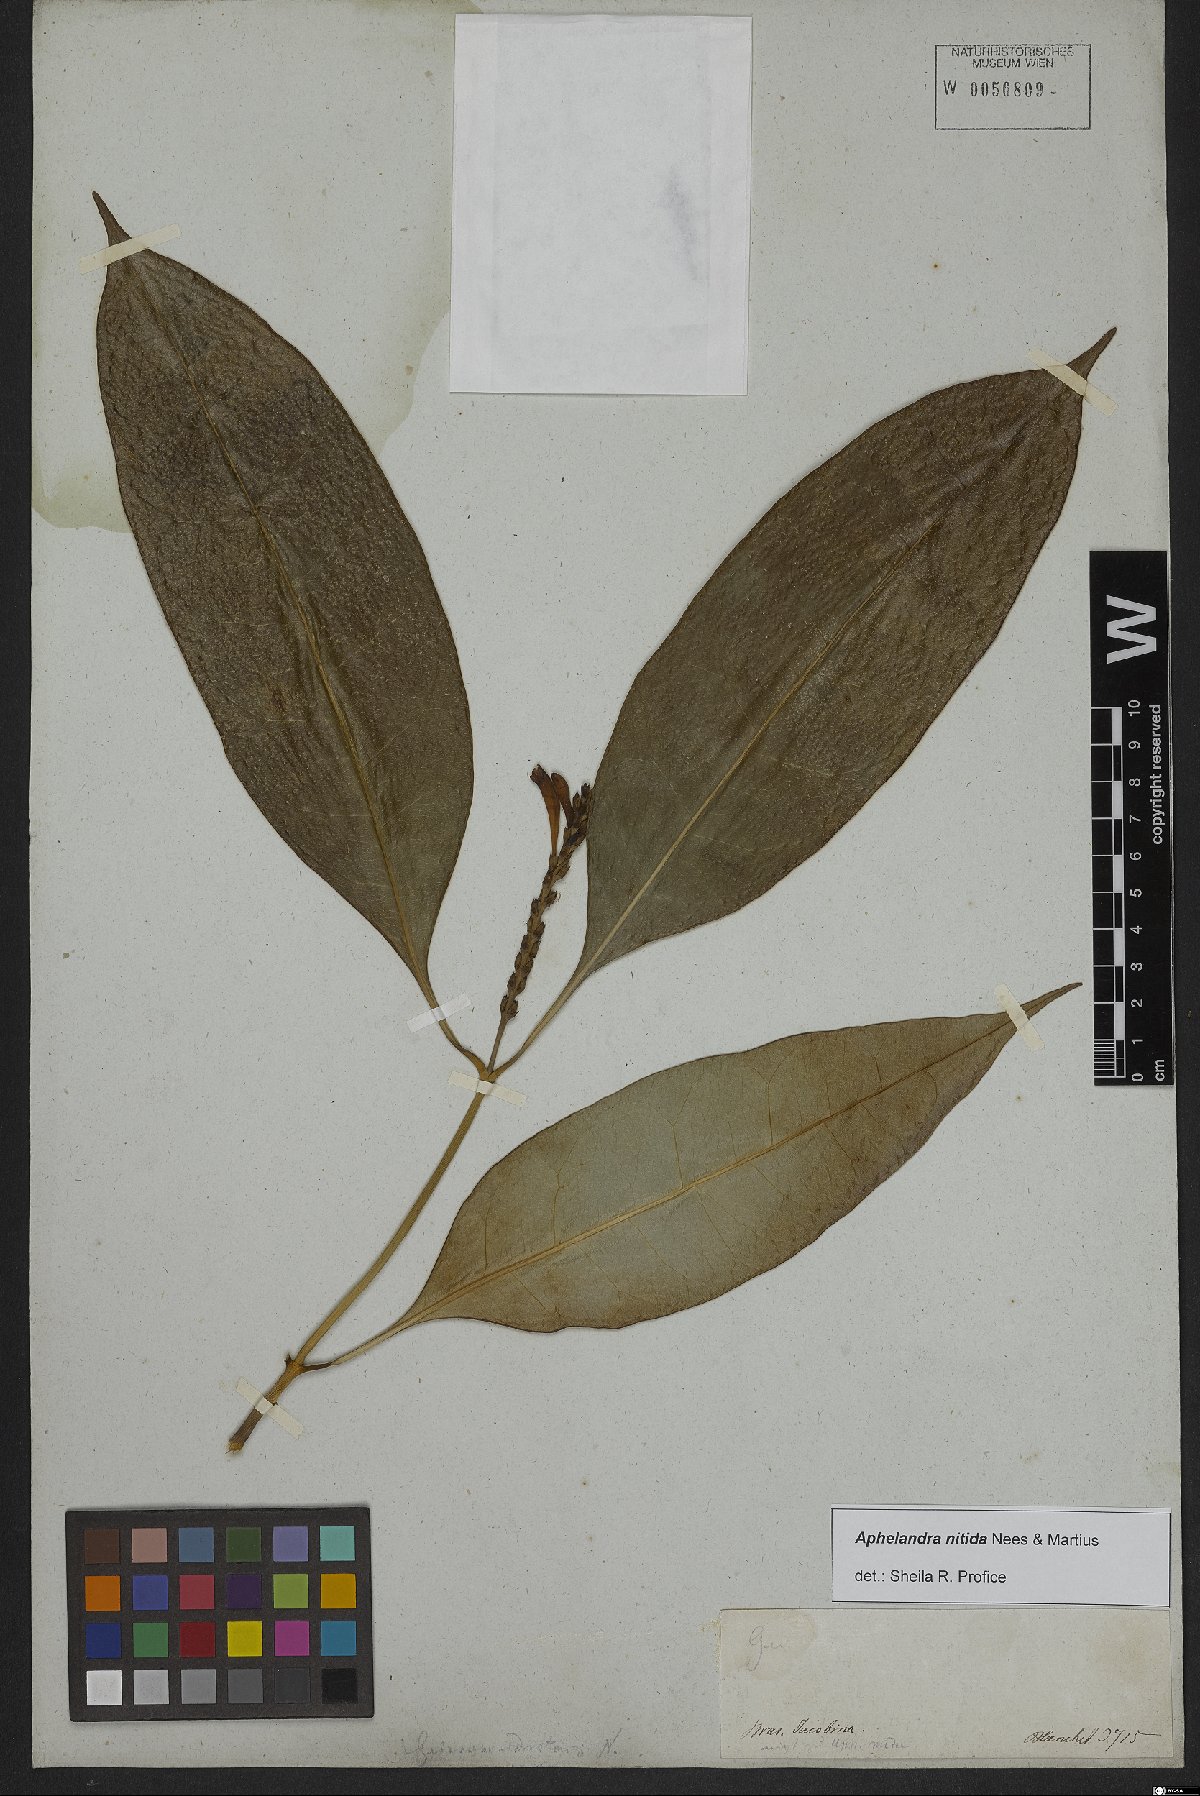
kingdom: Plantae
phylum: Tracheophyta
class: Magnoliopsida
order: Lamiales
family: Acanthaceae
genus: Aphelandra
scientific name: Aphelandra nitida
